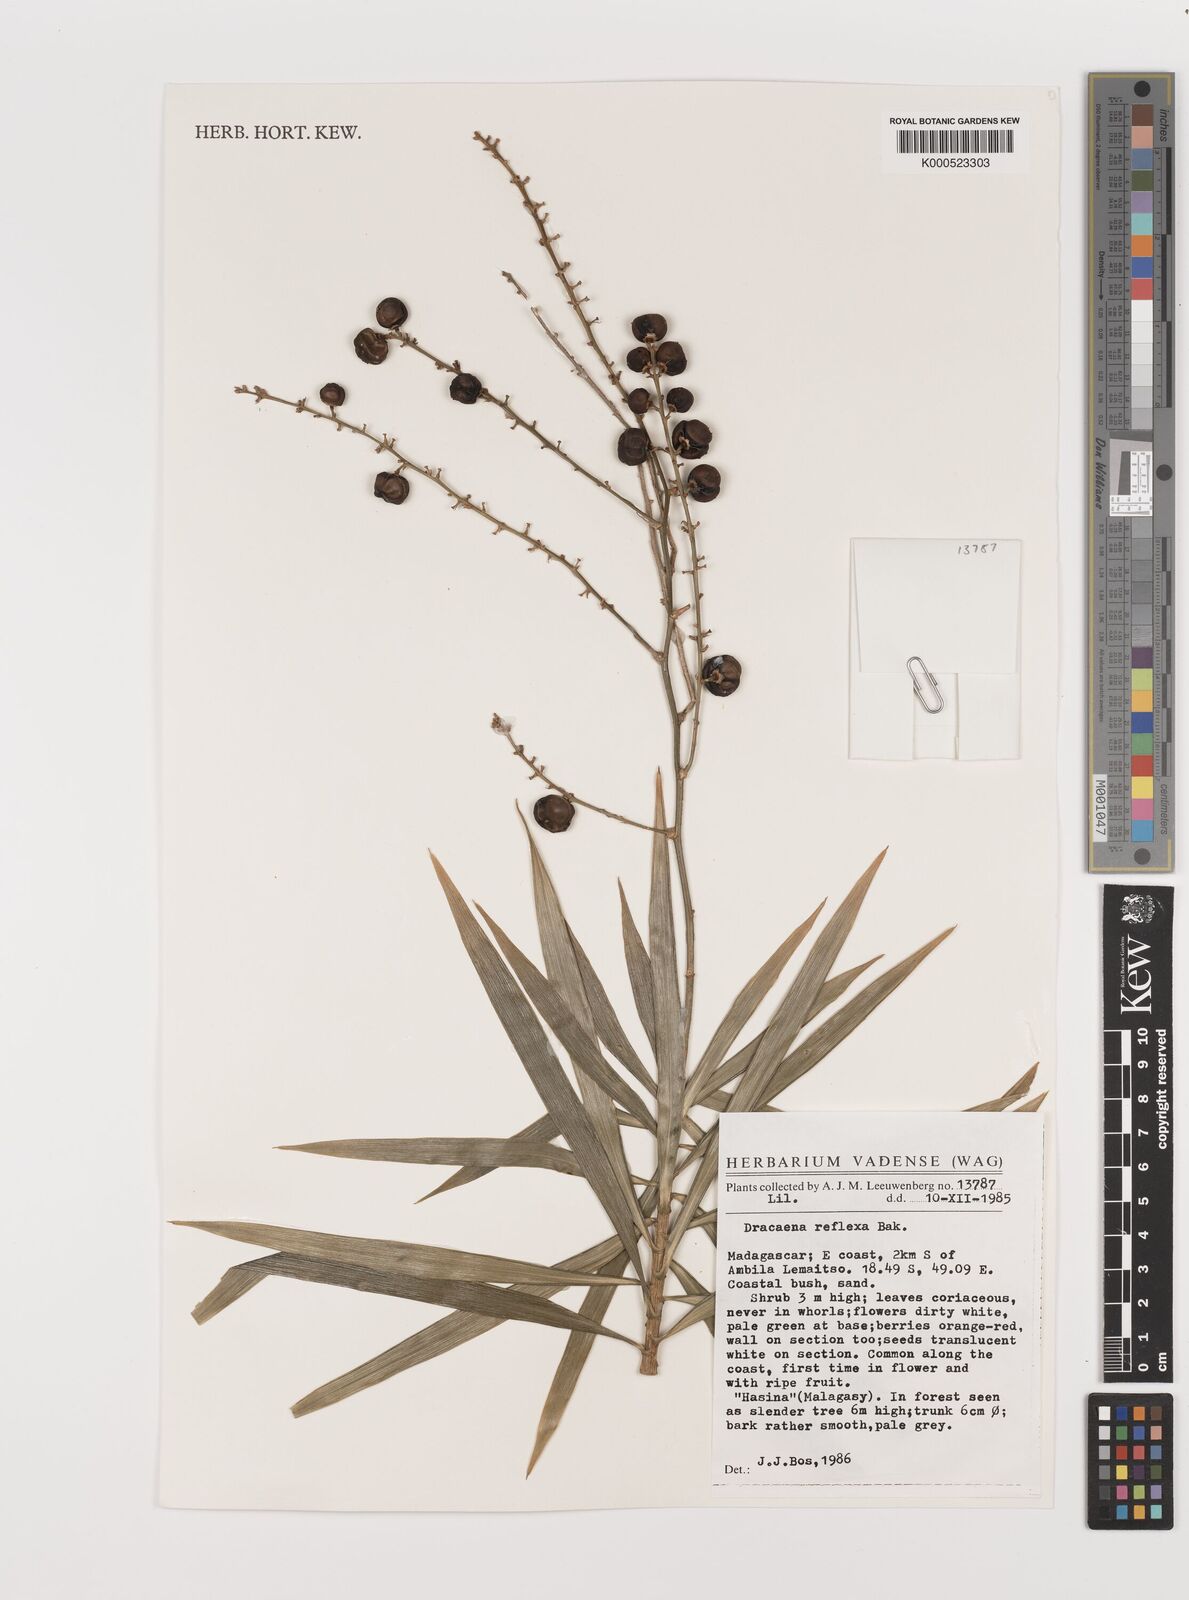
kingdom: Plantae
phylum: Tracheophyta
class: Liliopsida
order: Asparagales
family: Asparagaceae
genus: Dracaena
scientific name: Dracaena reflexa
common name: Song-of-india
